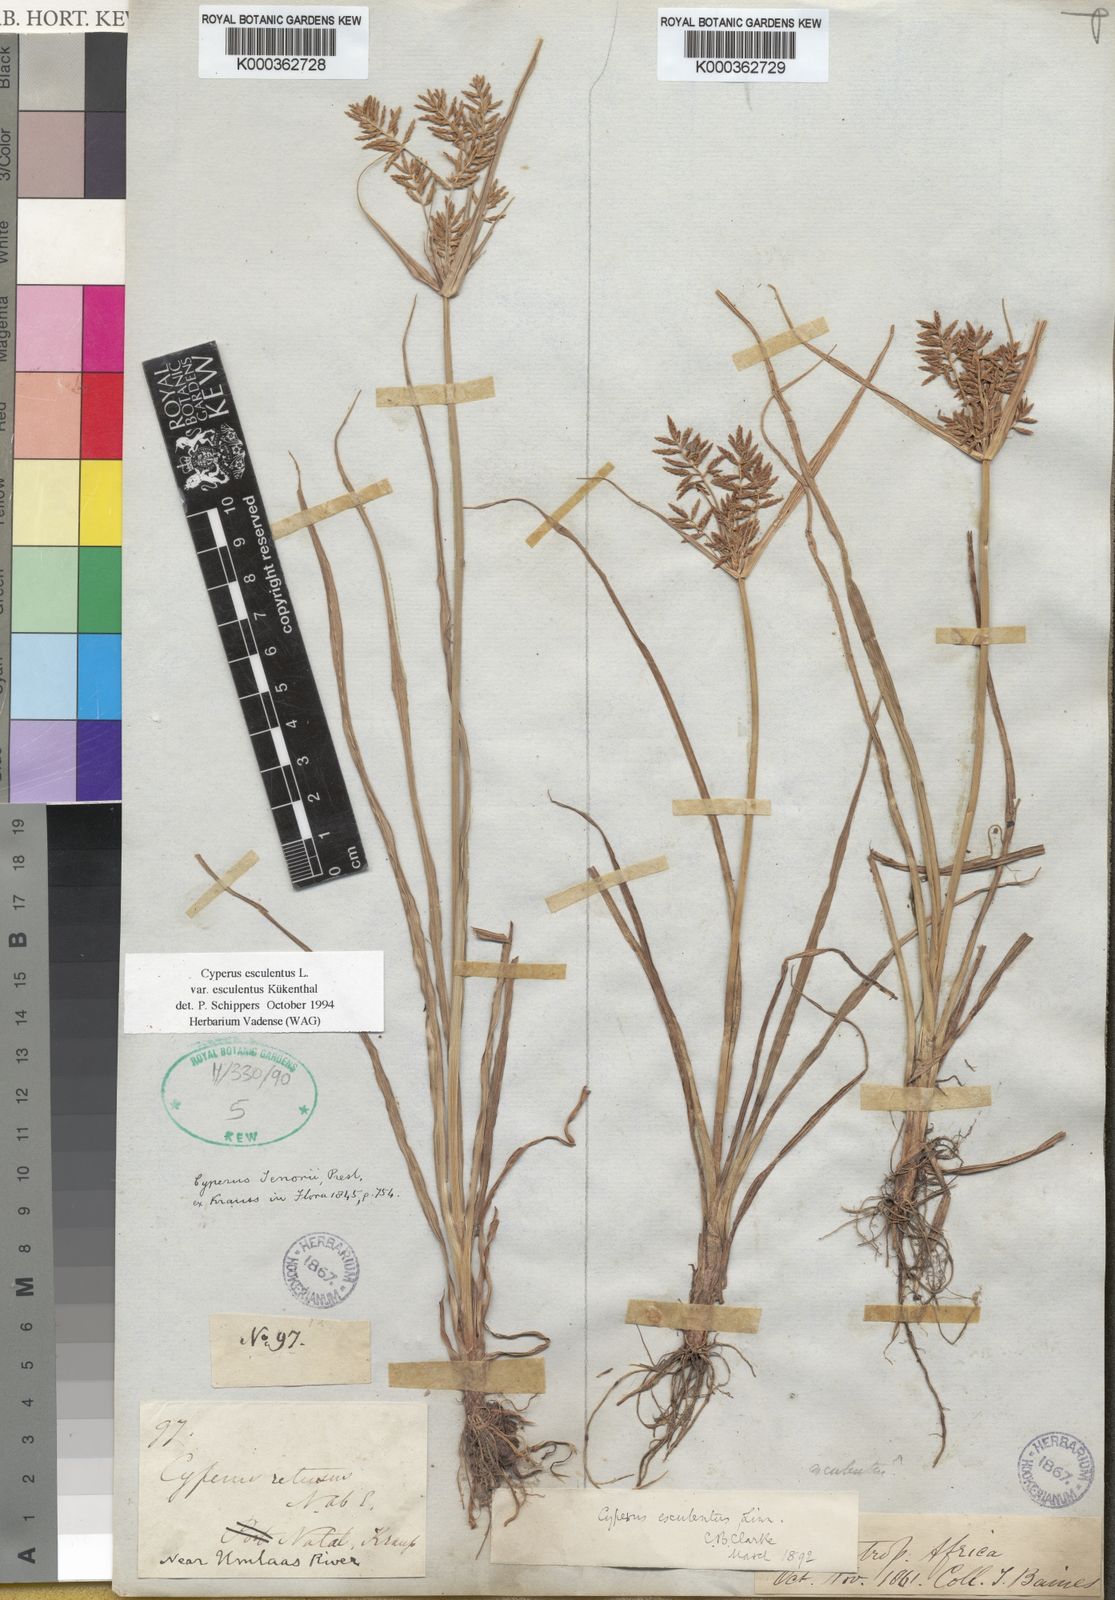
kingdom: Plantae
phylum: Tracheophyta
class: Liliopsida
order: Poales
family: Cyperaceae
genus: Cyperus
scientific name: Cyperus esculentus
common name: Yellow nutsedge
